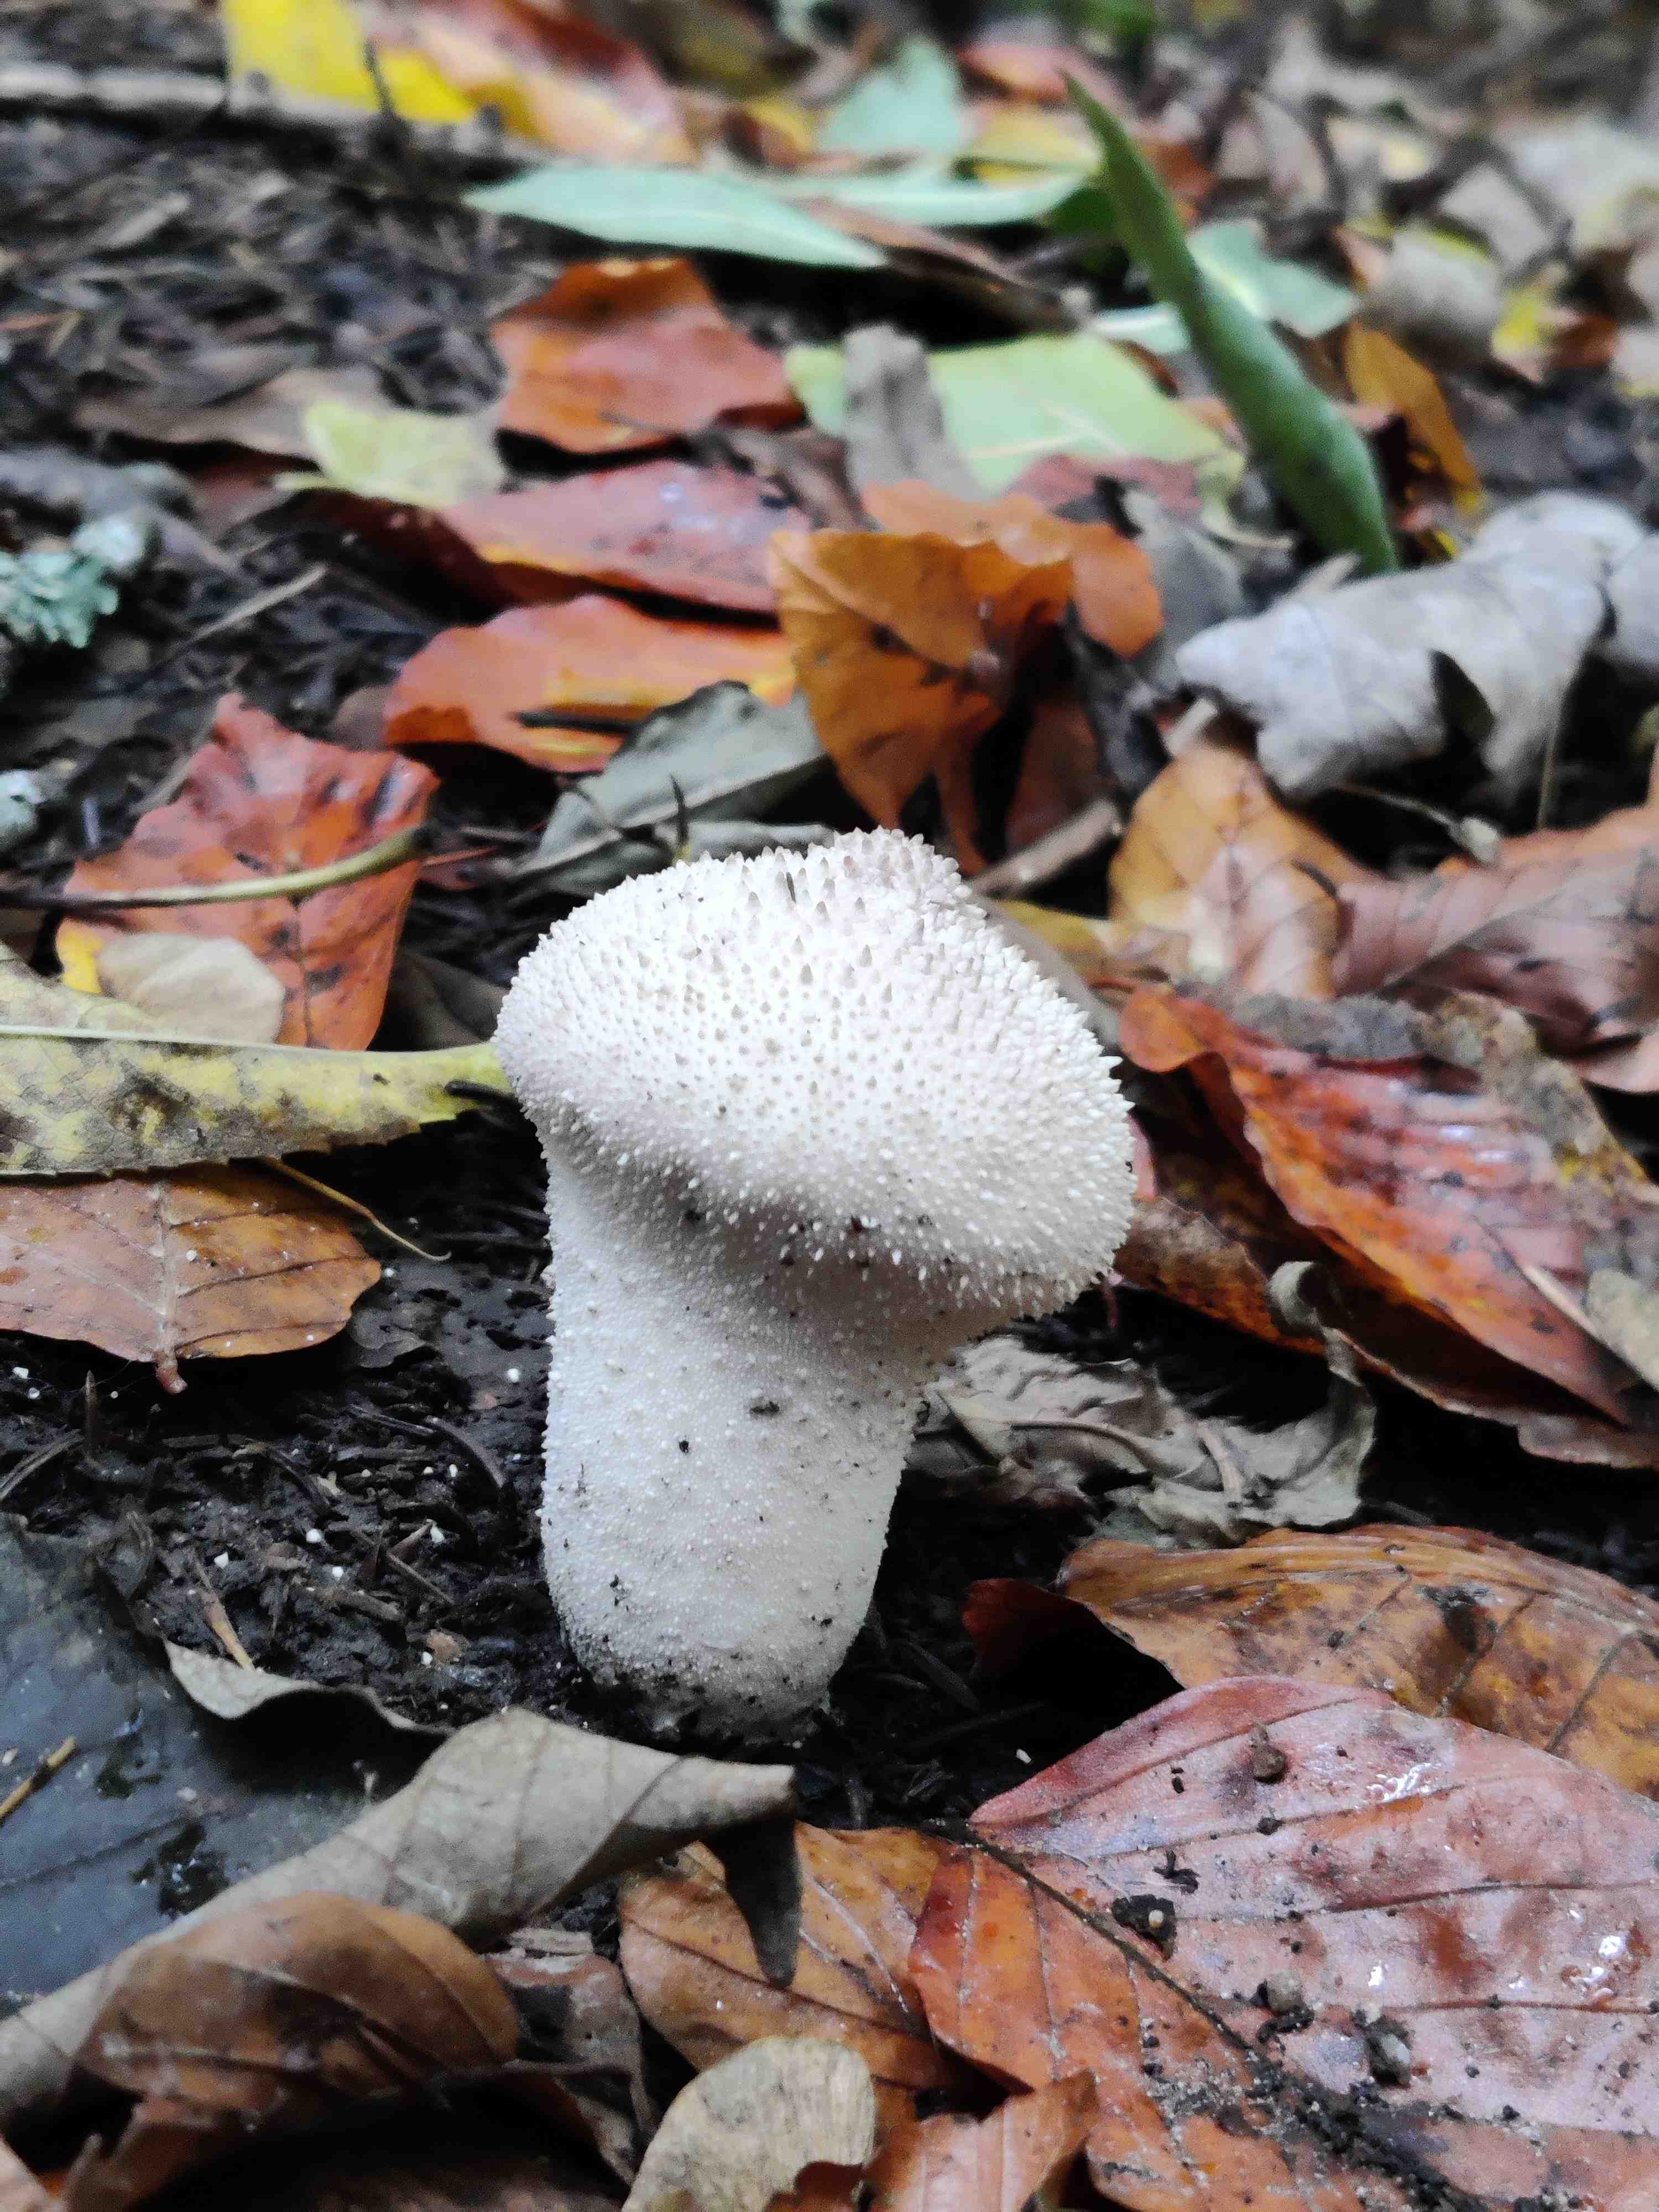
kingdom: Fungi
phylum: Basidiomycota
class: Agaricomycetes
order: Agaricales
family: Lycoperdaceae
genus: Lycoperdon
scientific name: Lycoperdon perlatum
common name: krystal-støvbold
